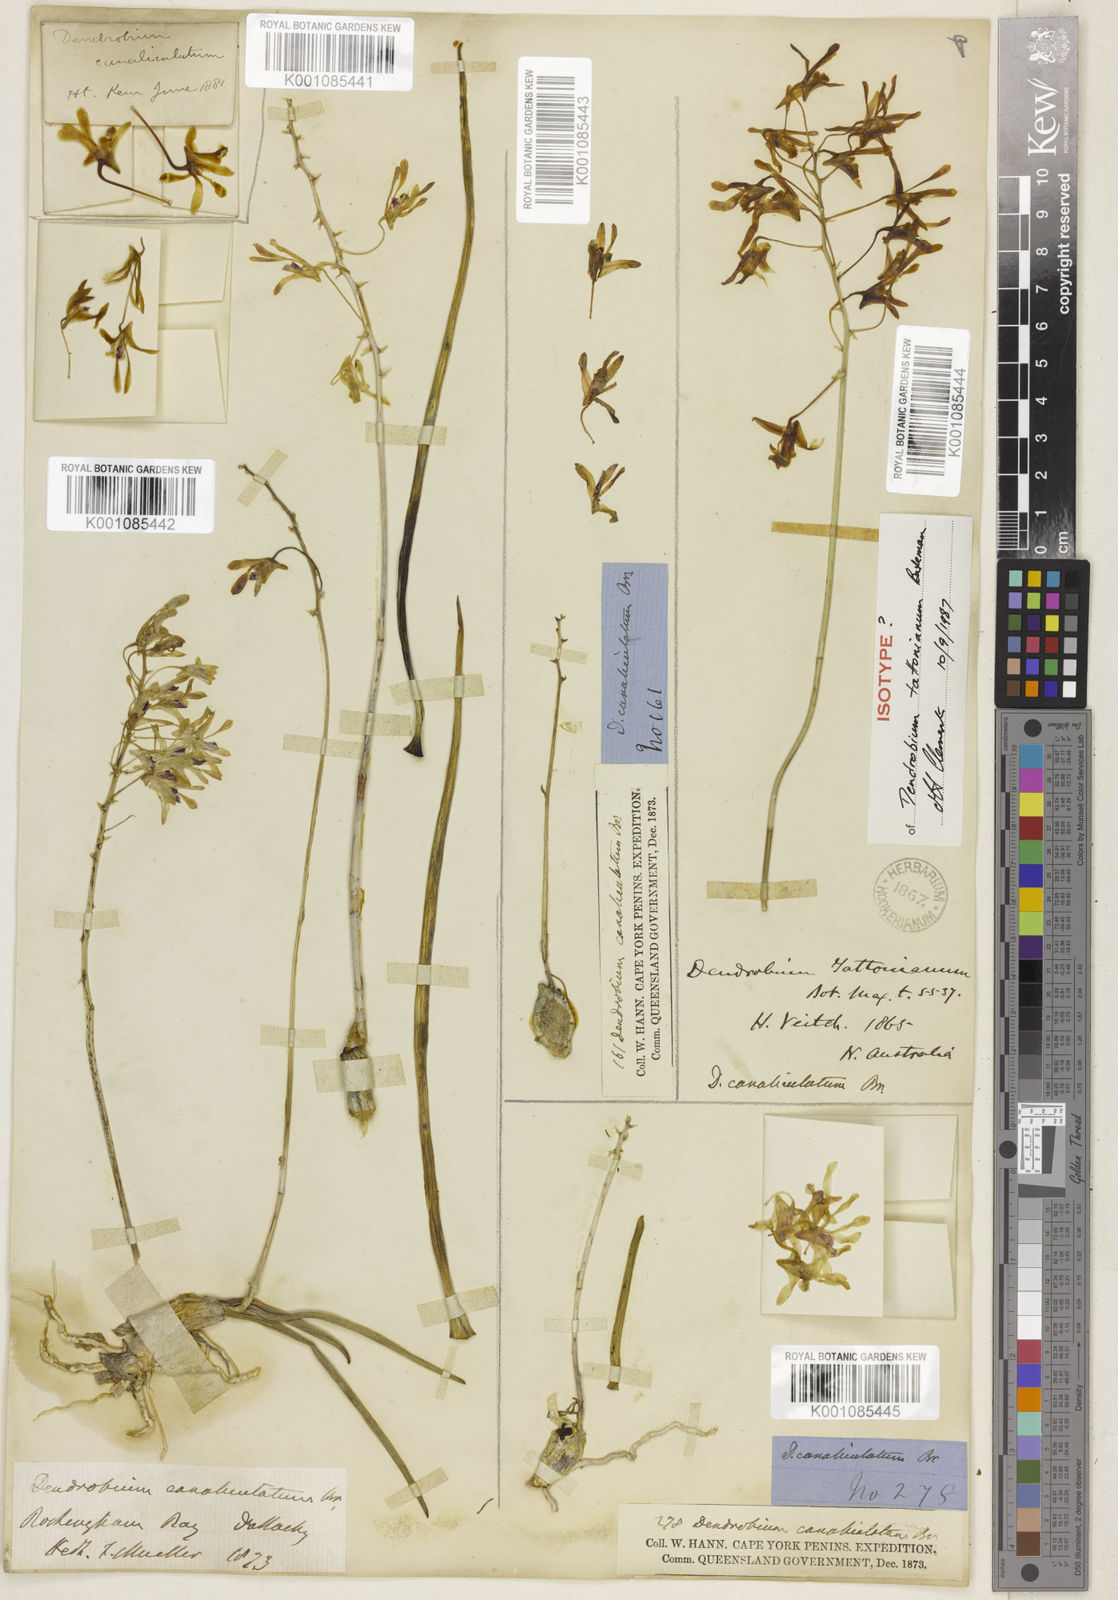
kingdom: Plantae
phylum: Tracheophyta
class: Liliopsida
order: Asparagales
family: Orchidaceae
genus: Dendrobium
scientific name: Dendrobium canaliculatum
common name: Tea tree orchid
